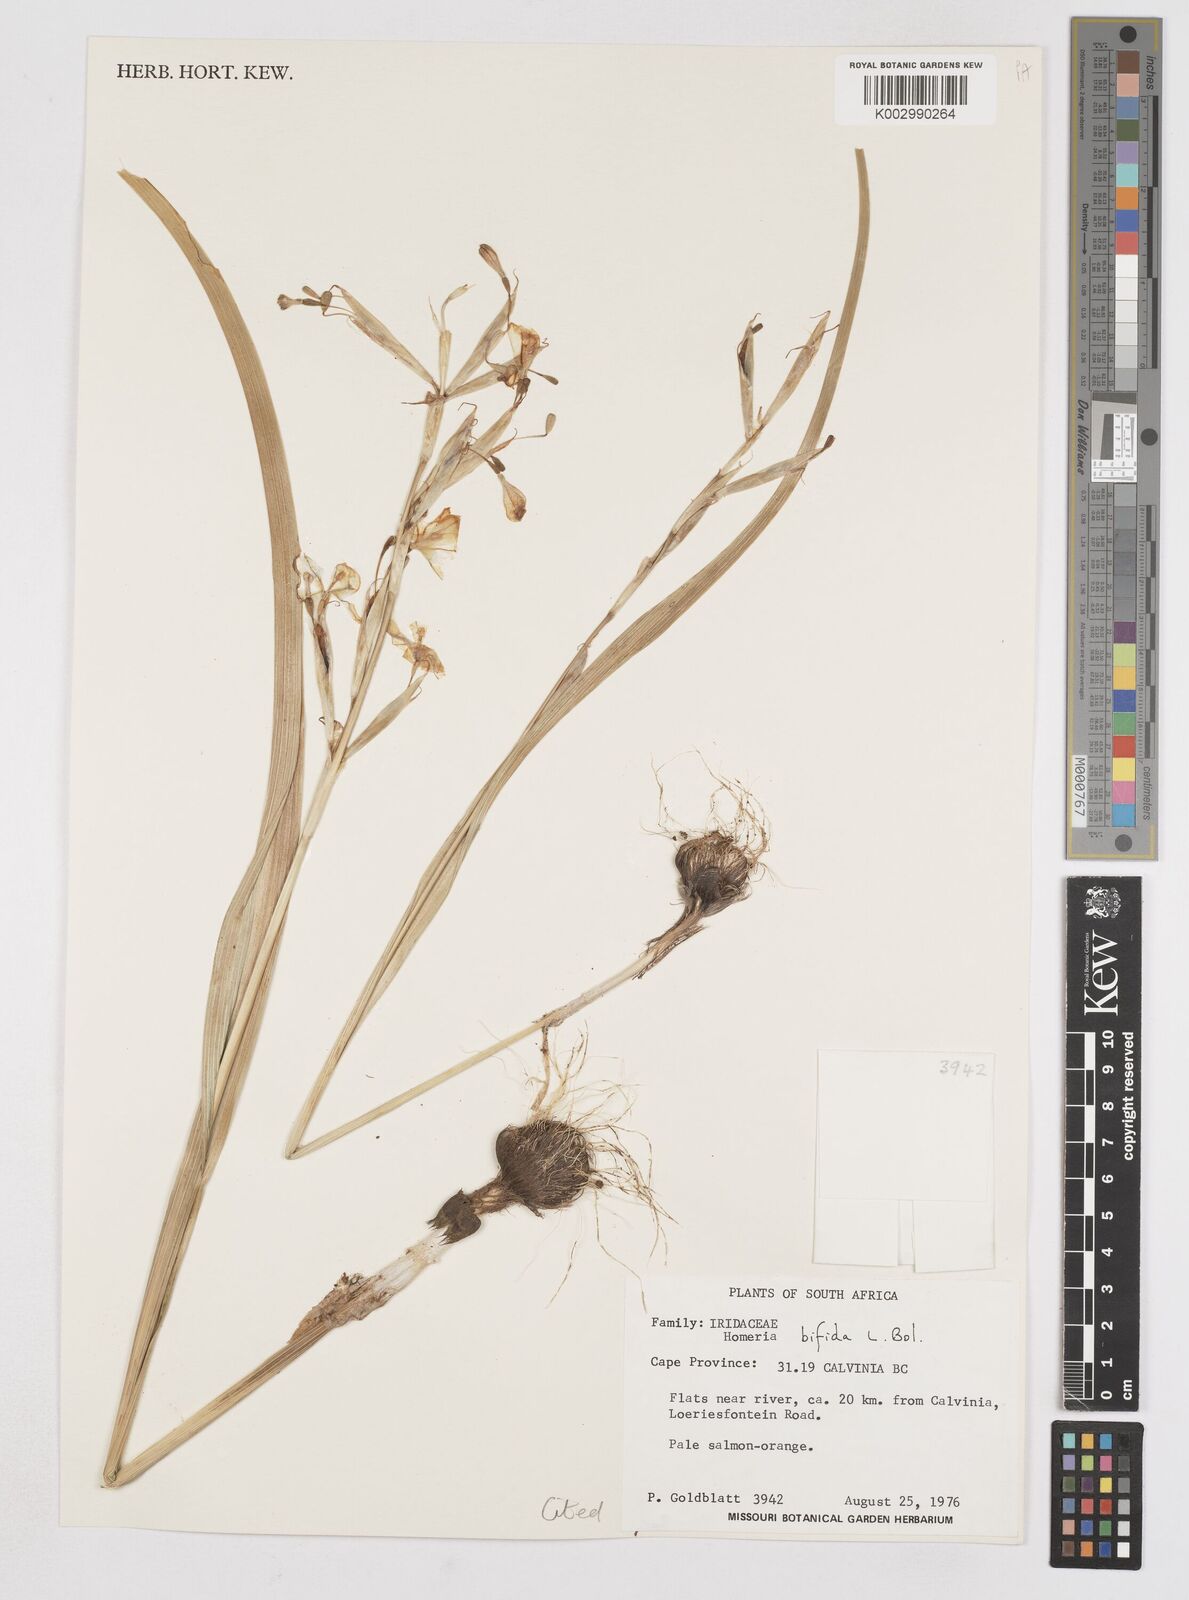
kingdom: Plantae
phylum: Tracheophyta
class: Liliopsida
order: Asparagales
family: Iridaceae
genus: Moraea
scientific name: Moraea bifida
